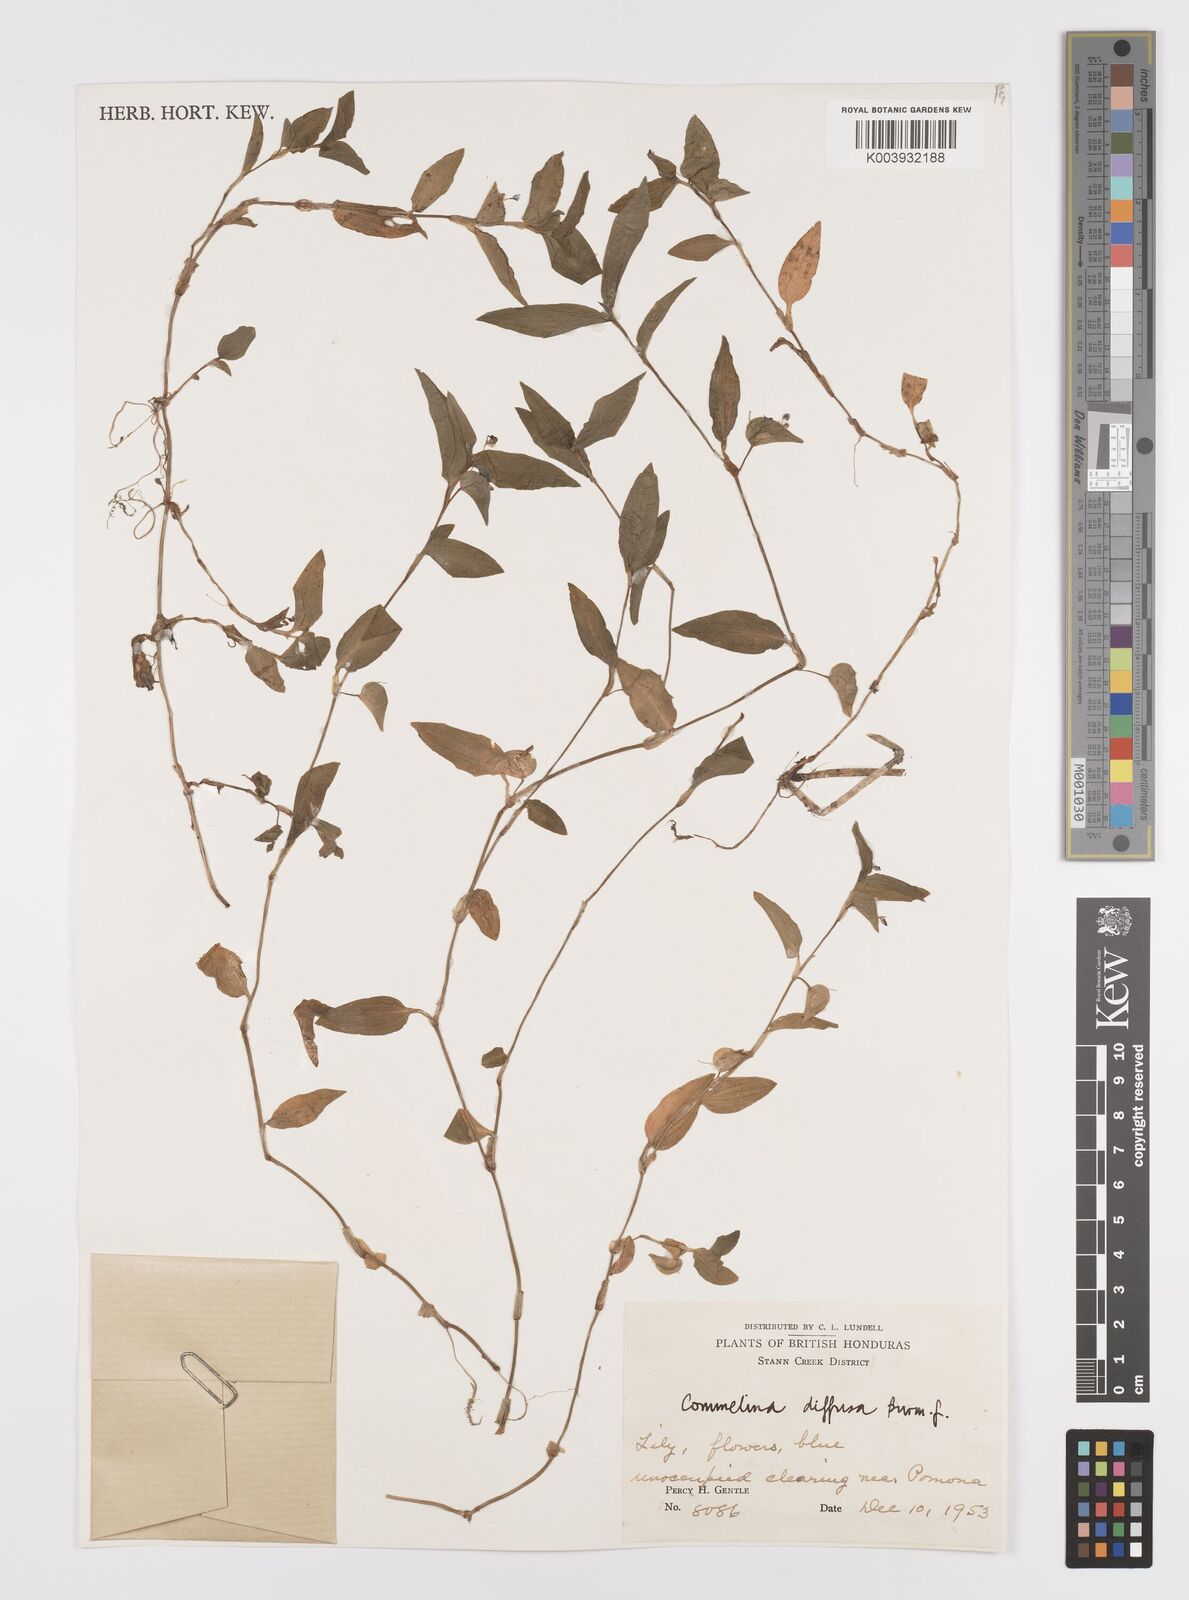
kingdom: Plantae
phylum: Tracheophyta
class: Liliopsida
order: Commelinales
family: Commelinaceae
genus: Commelina
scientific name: Commelina diffusa
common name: Climbing dayflower
